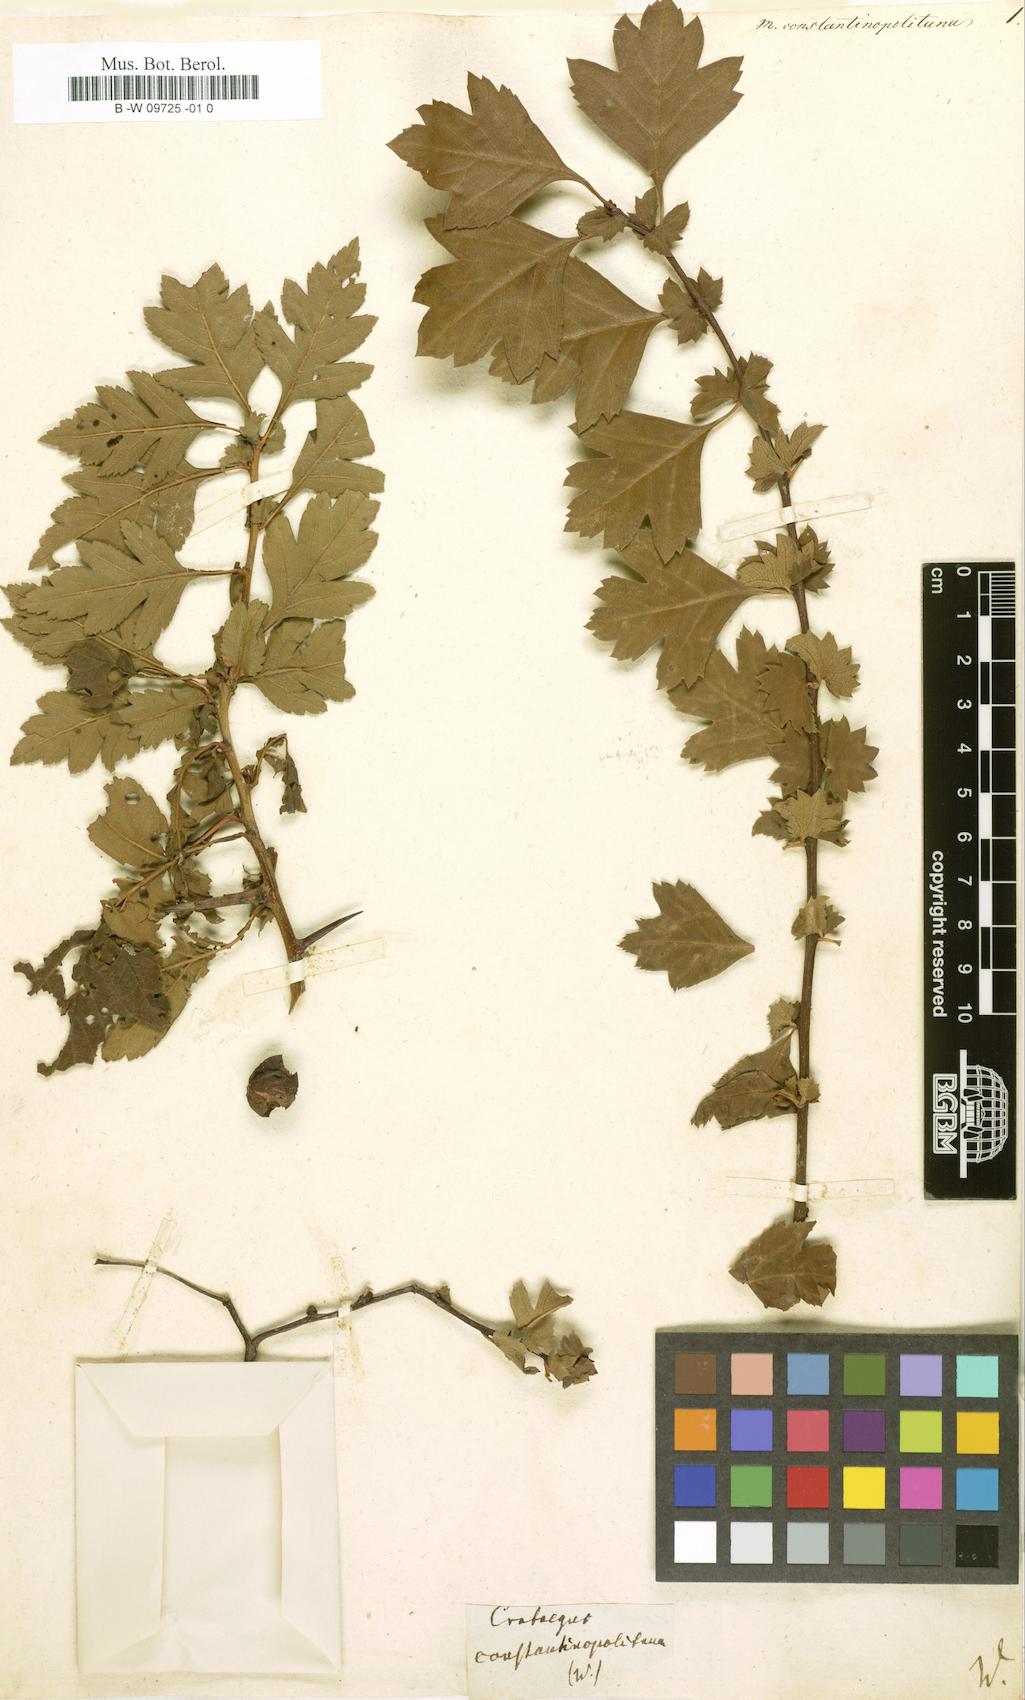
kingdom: Plantae
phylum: Tracheophyta
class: Magnoliopsida
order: Rosales
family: Rosaceae
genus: Crataegus
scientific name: Crataegus monogyna
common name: Hawthorn
